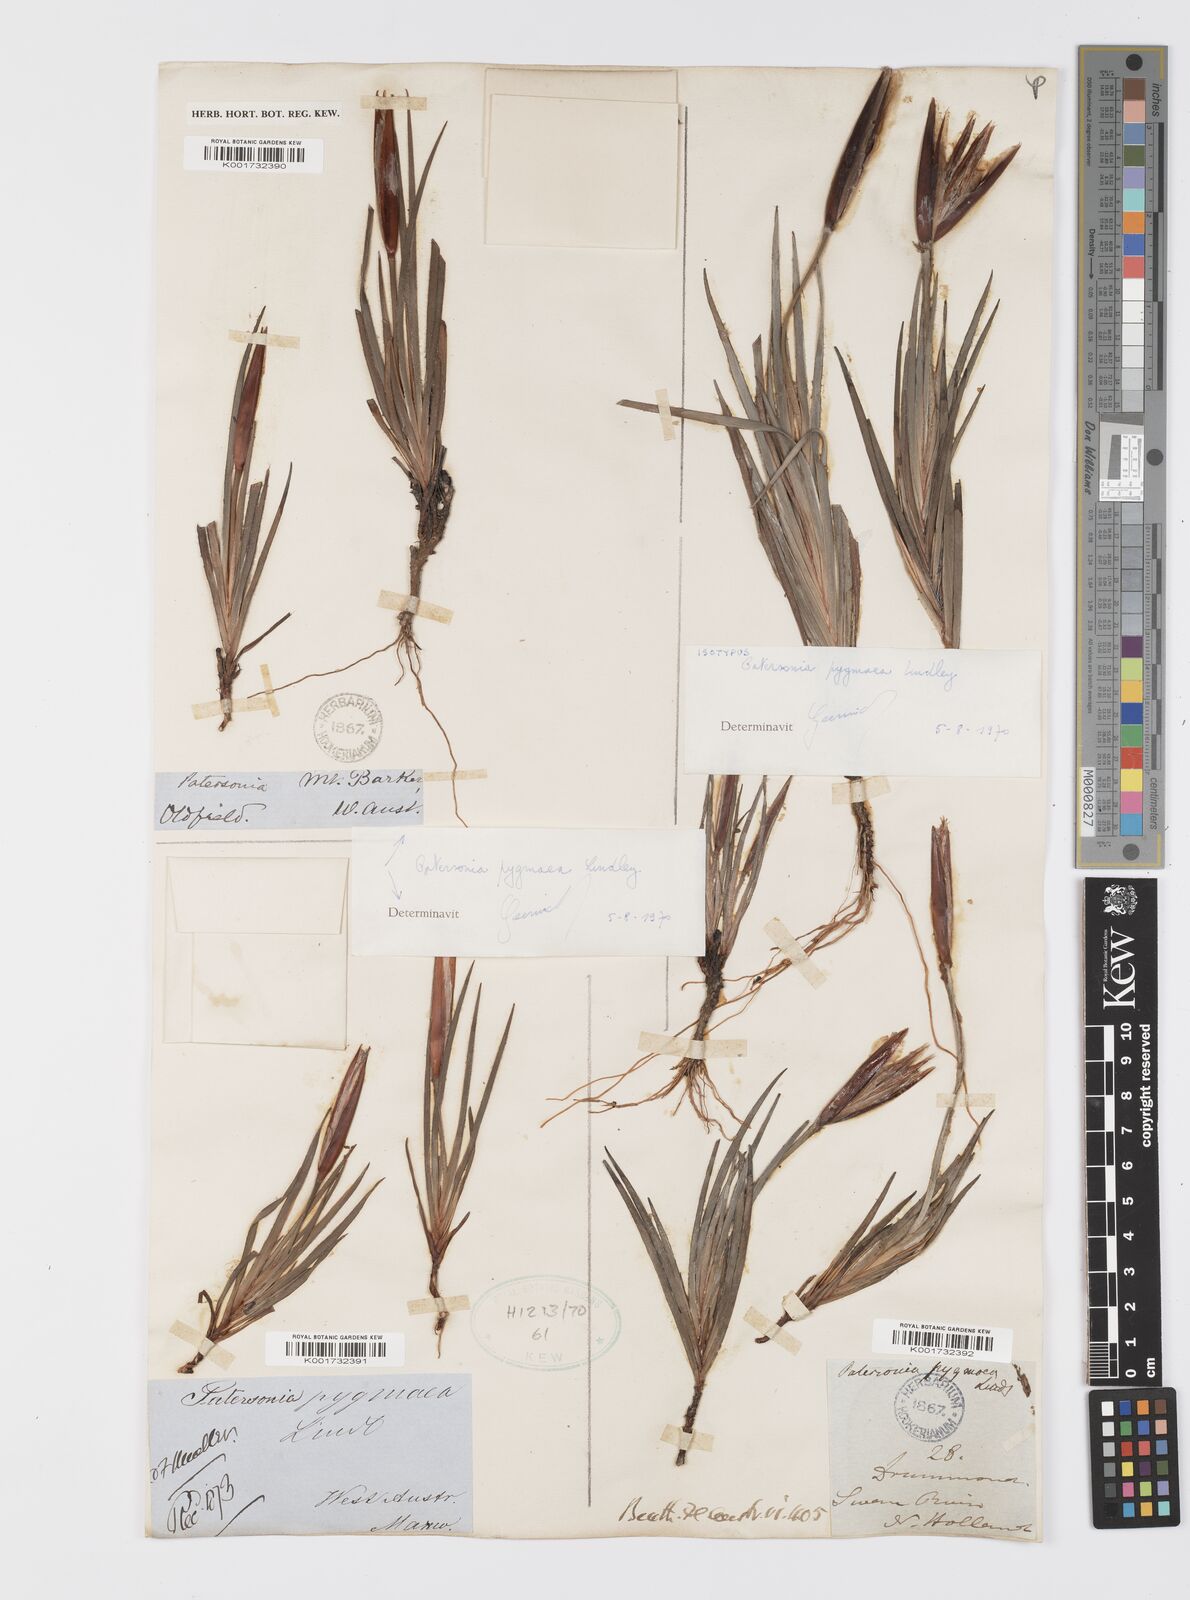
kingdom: Plantae
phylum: Tracheophyta
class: Liliopsida
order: Asparagales
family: Iridaceae
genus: Patersonia
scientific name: Patersonia pygmaea
